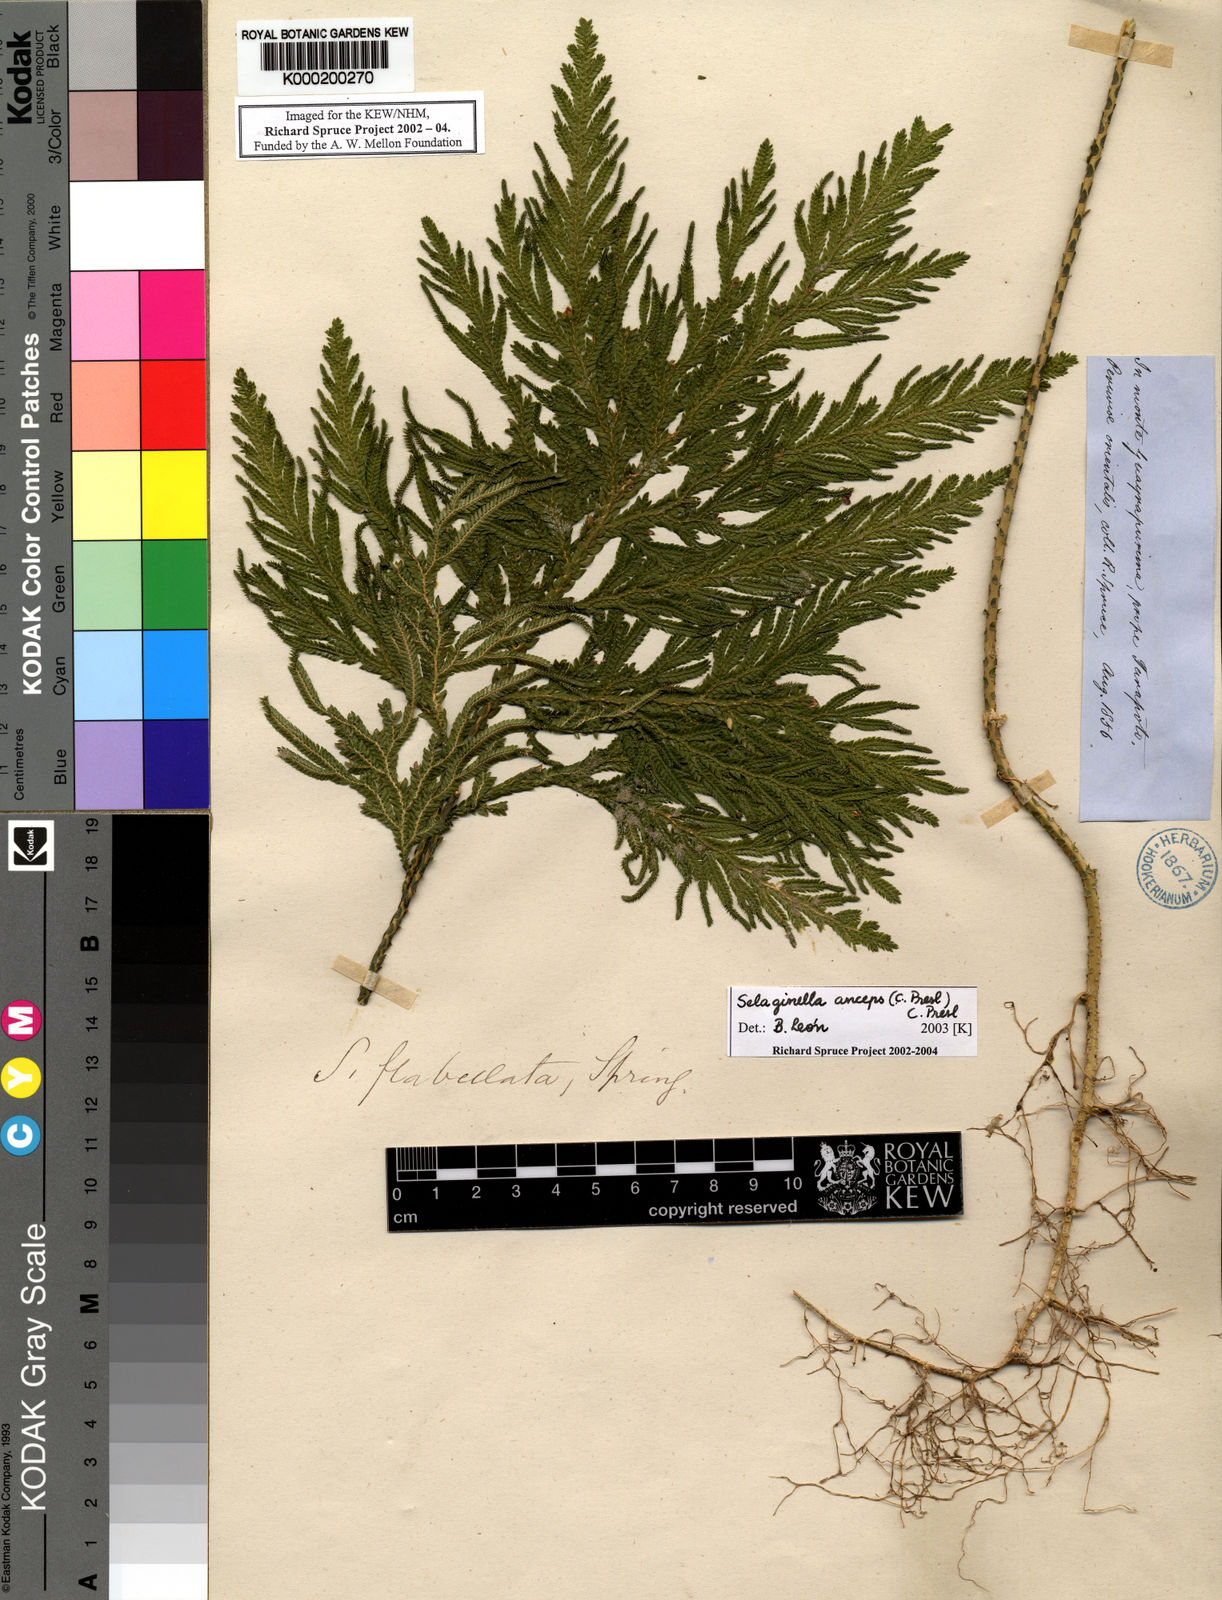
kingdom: Plantae
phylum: Tracheophyta
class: Lycopodiopsida
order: Selaginellales
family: Selaginellaceae
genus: Selaginella
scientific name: Selaginella anceps
